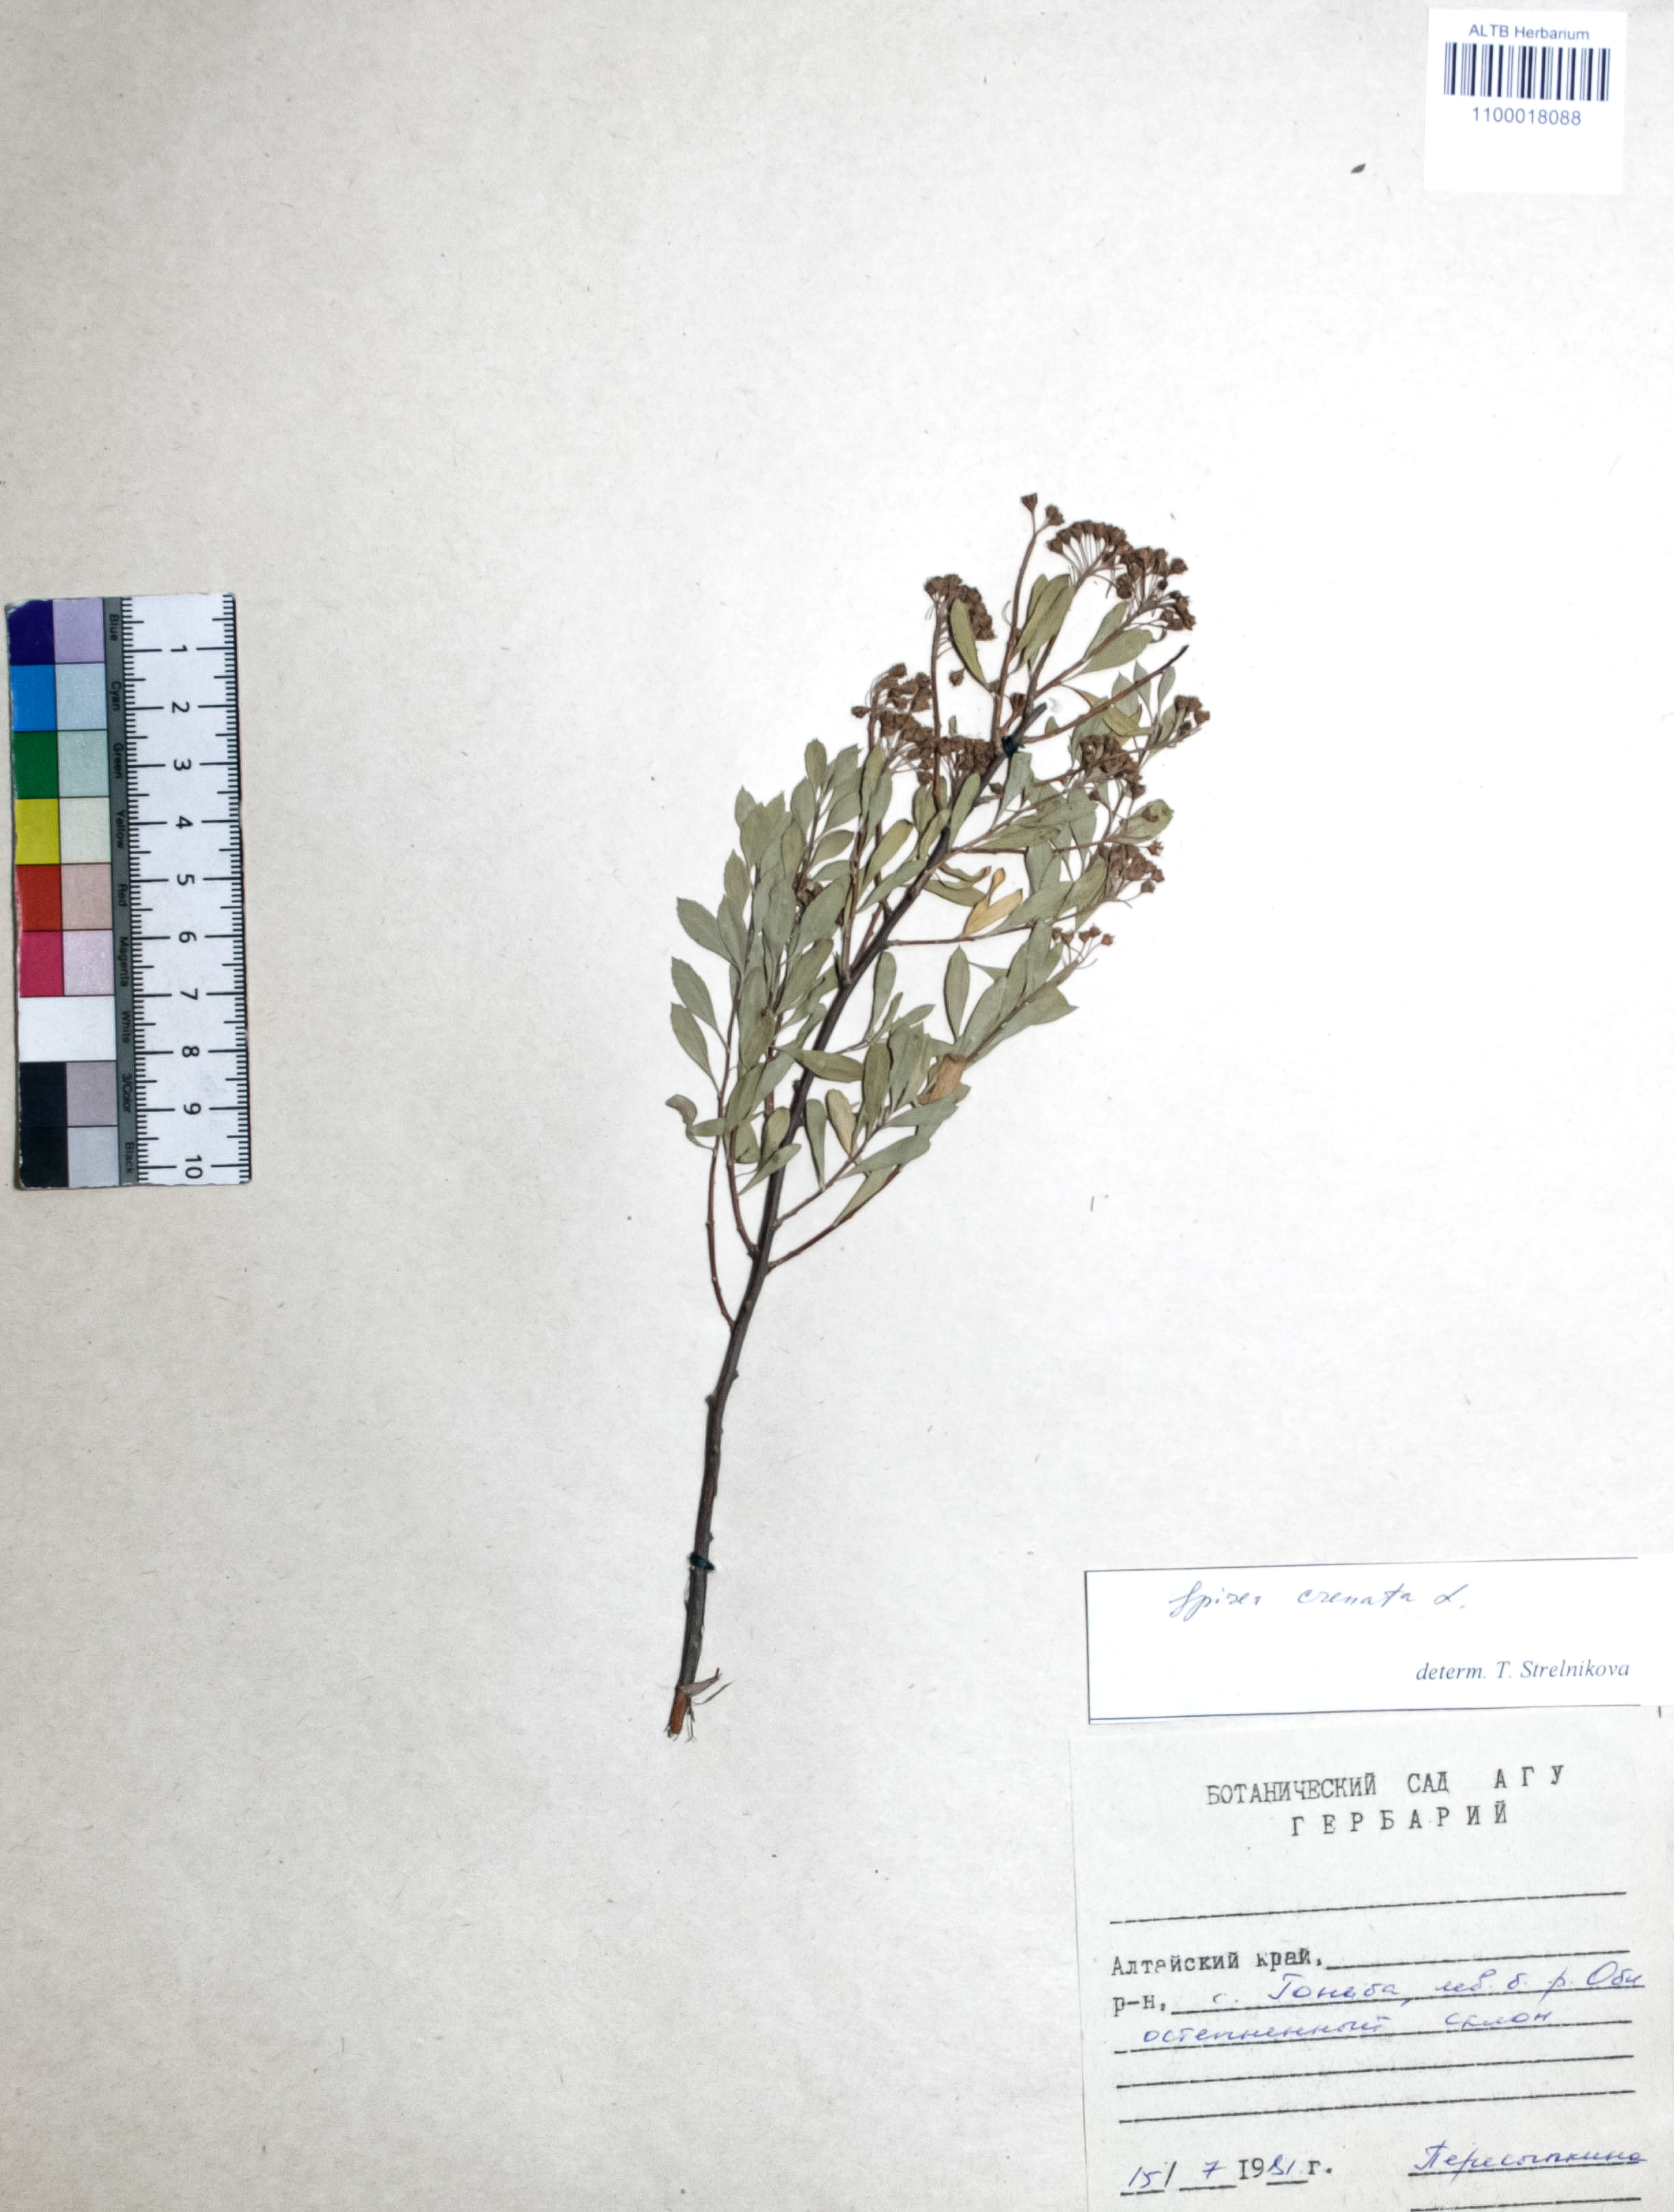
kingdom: Plantae
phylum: Tracheophyta
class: Magnoliopsida
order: Rosales
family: Rosaceae
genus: Spiraea
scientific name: Spiraea crenata
